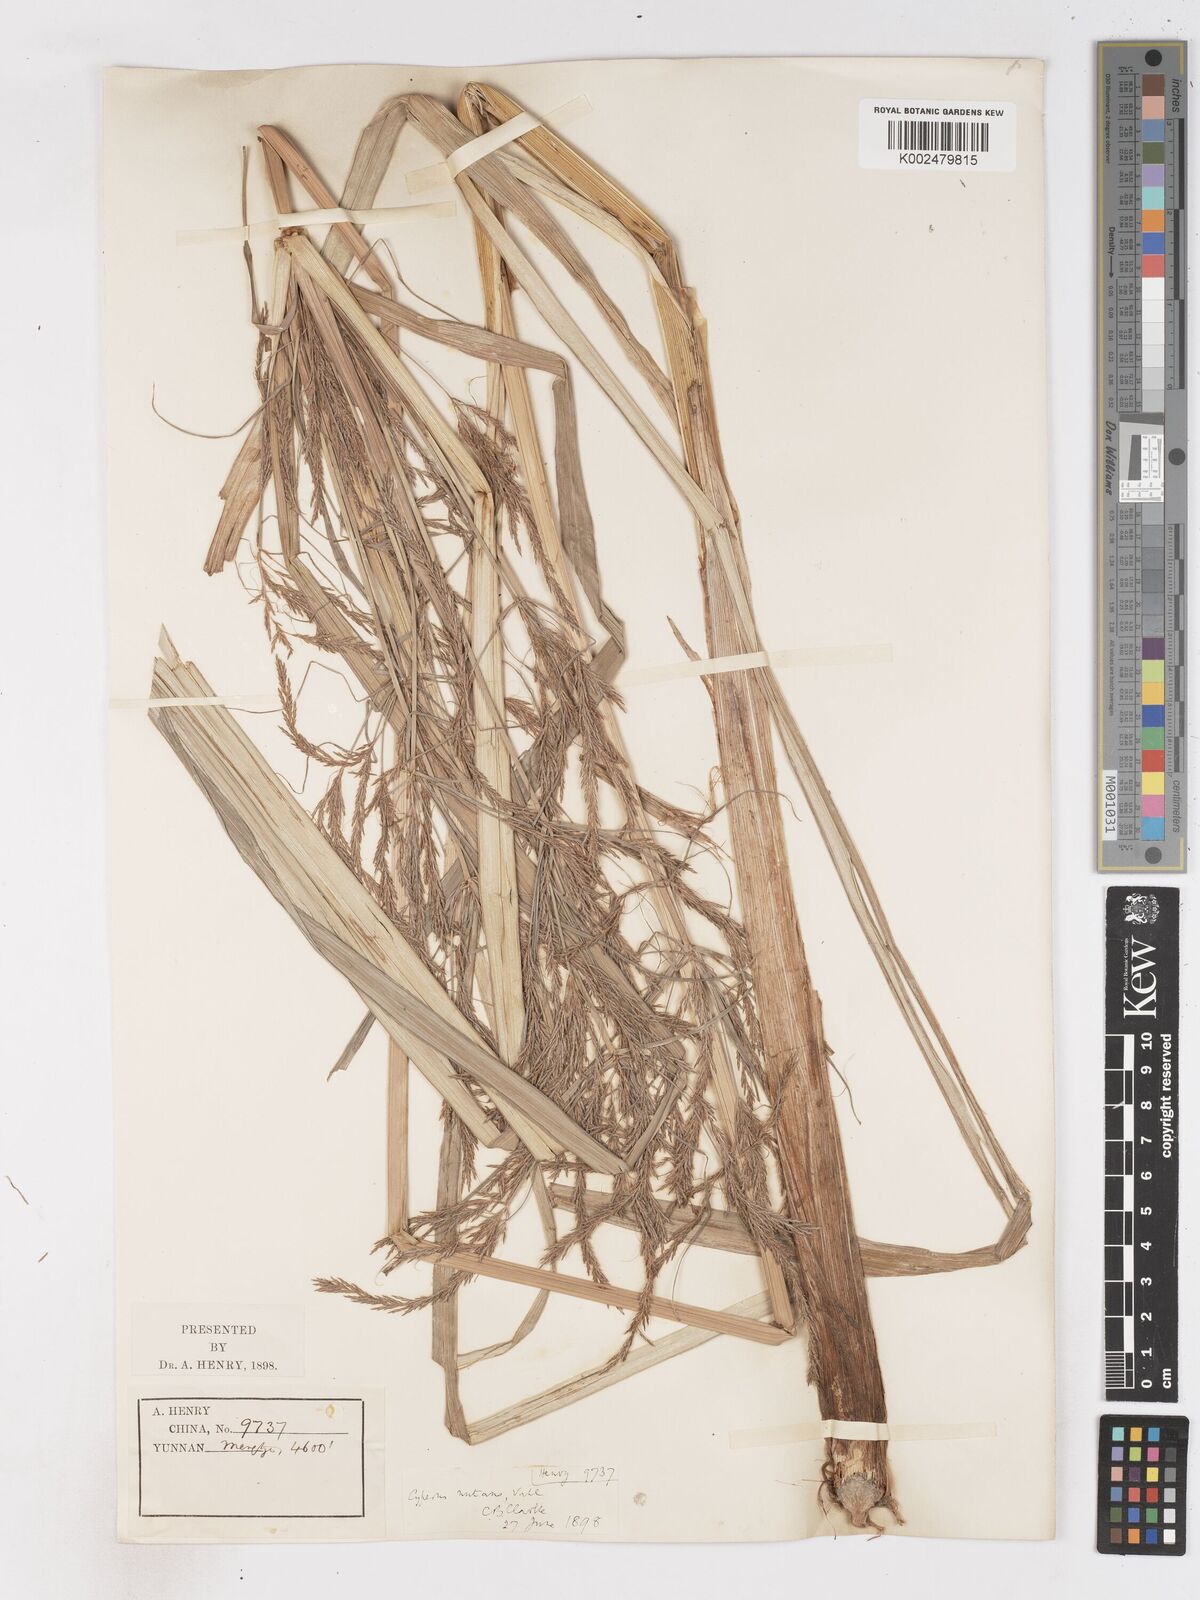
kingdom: Plantae
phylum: Tracheophyta
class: Liliopsida
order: Poales
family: Cyperaceae
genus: Cyperus
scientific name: Cyperus nutans
